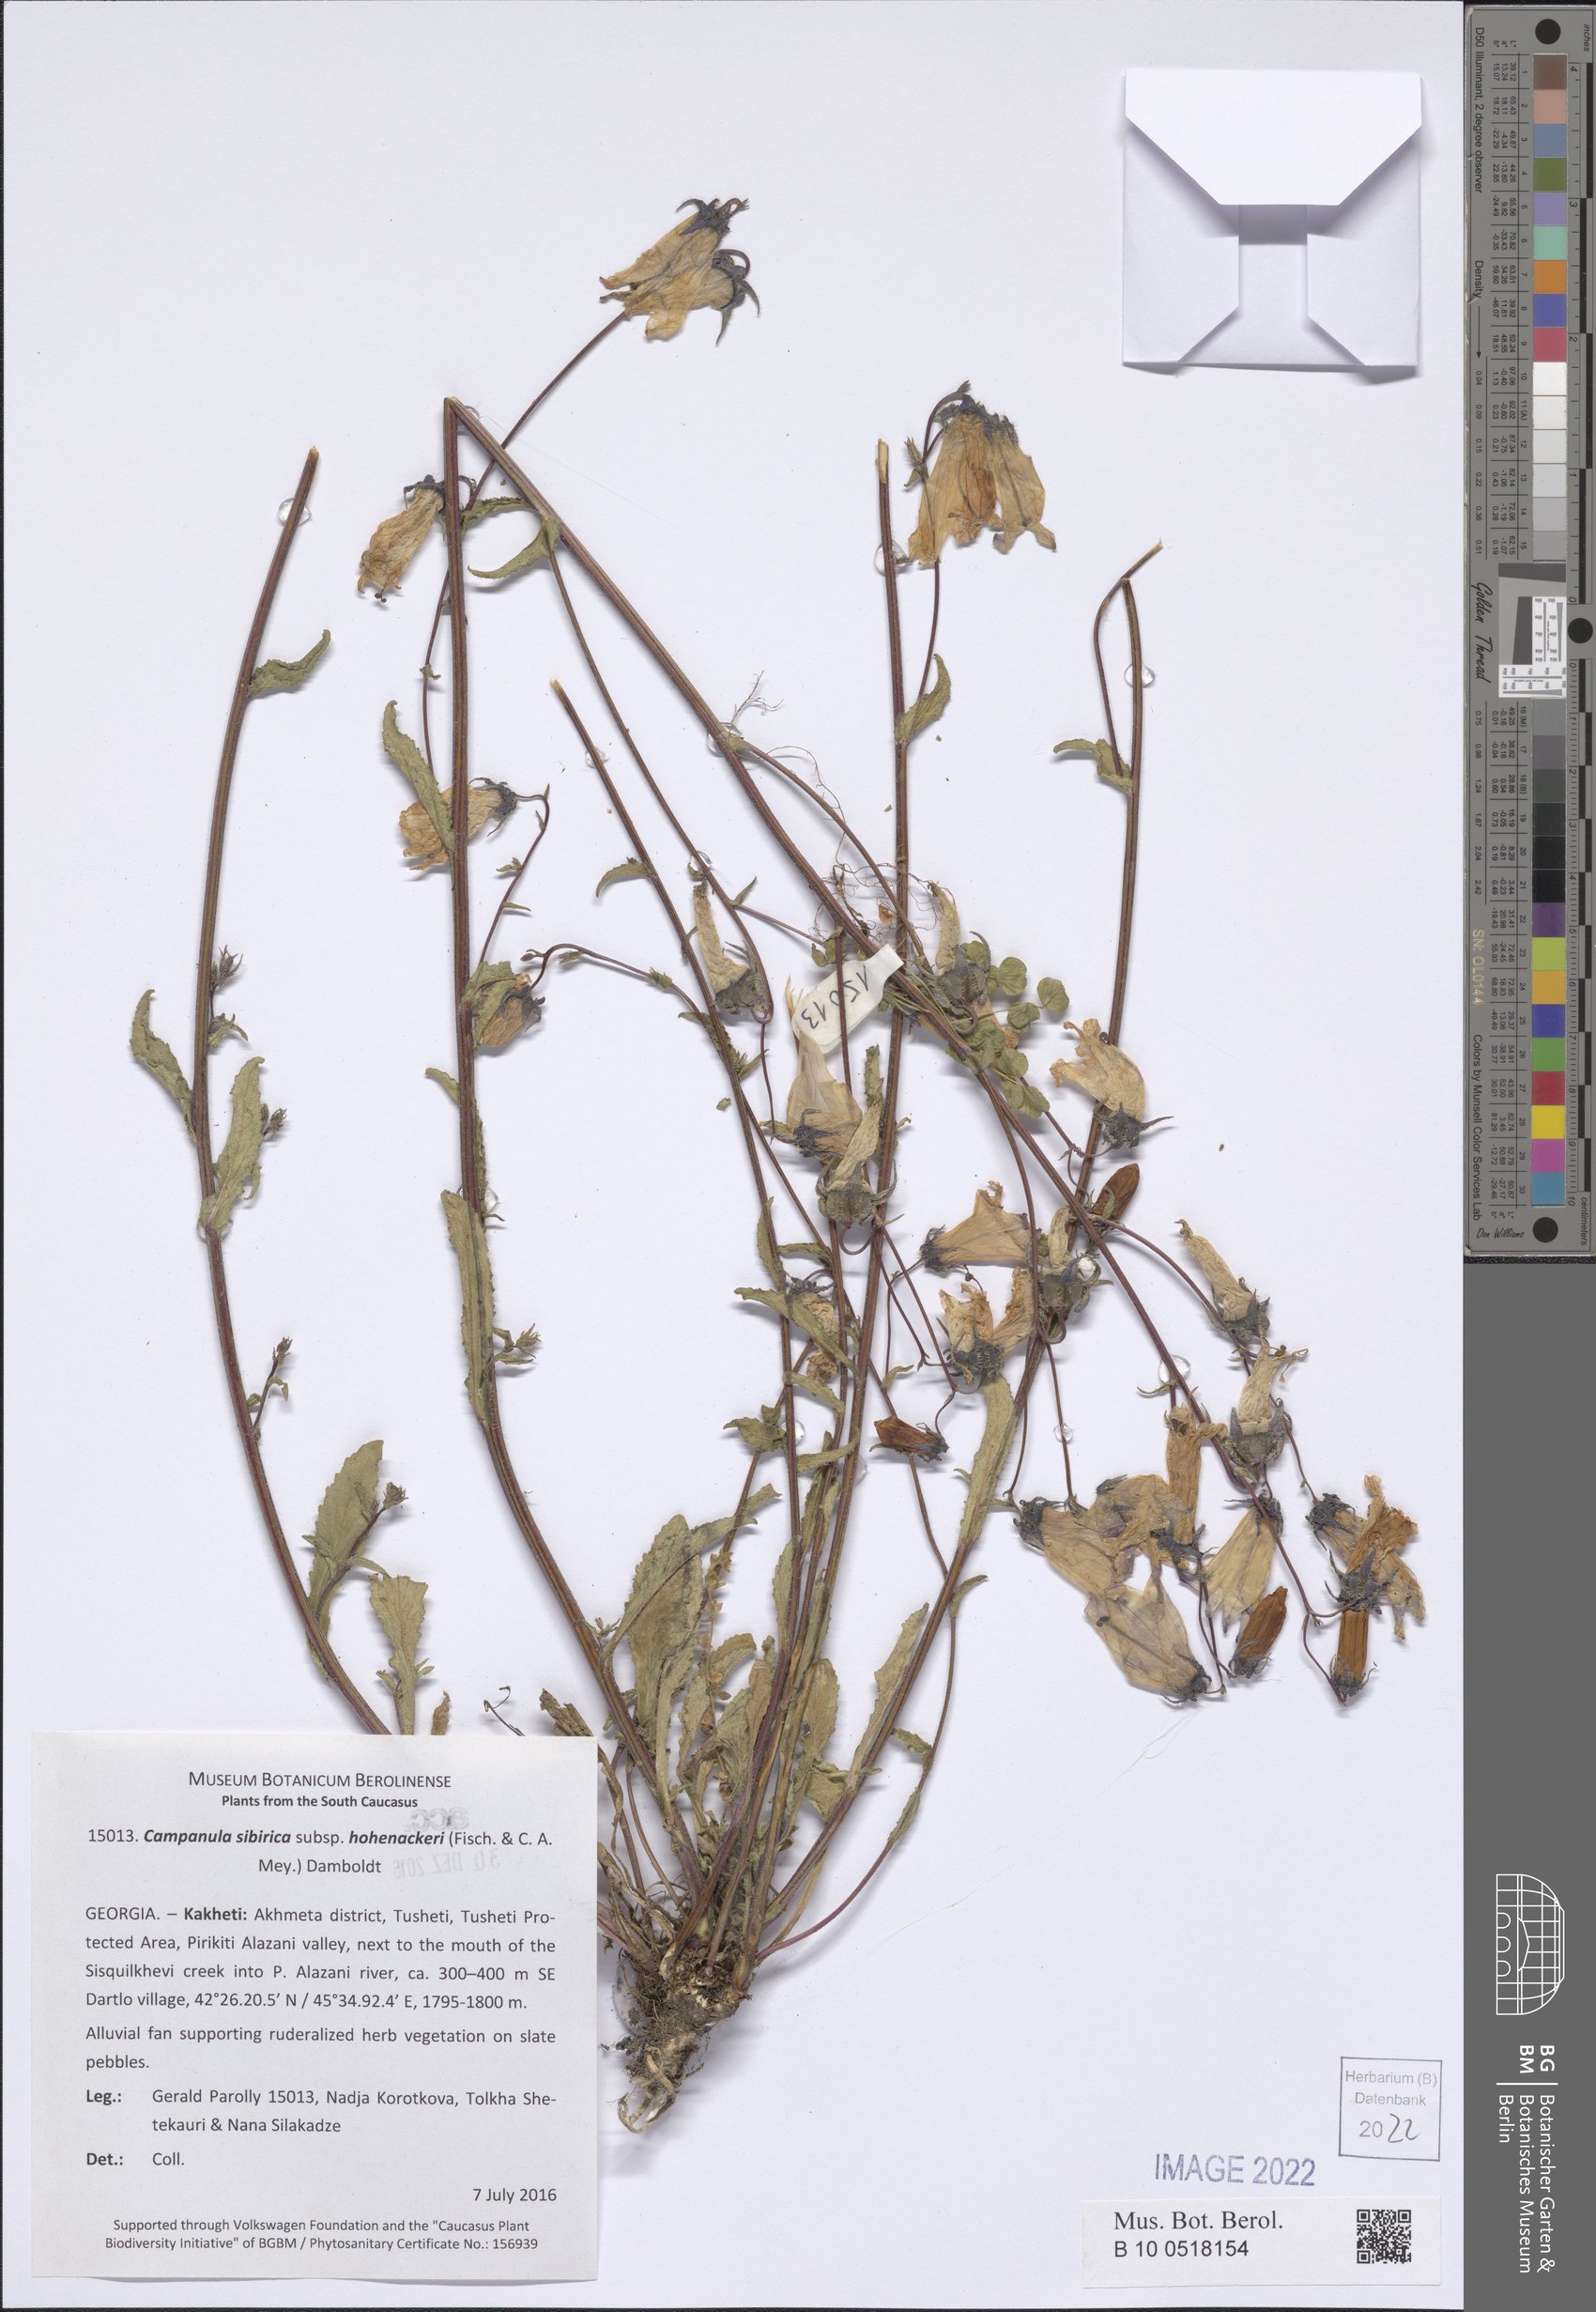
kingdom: Plantae
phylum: Tracheophyta
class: Magnoliopsida
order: Asterales
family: Campanulaceae
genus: Campanula
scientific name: Campanula sibirica
